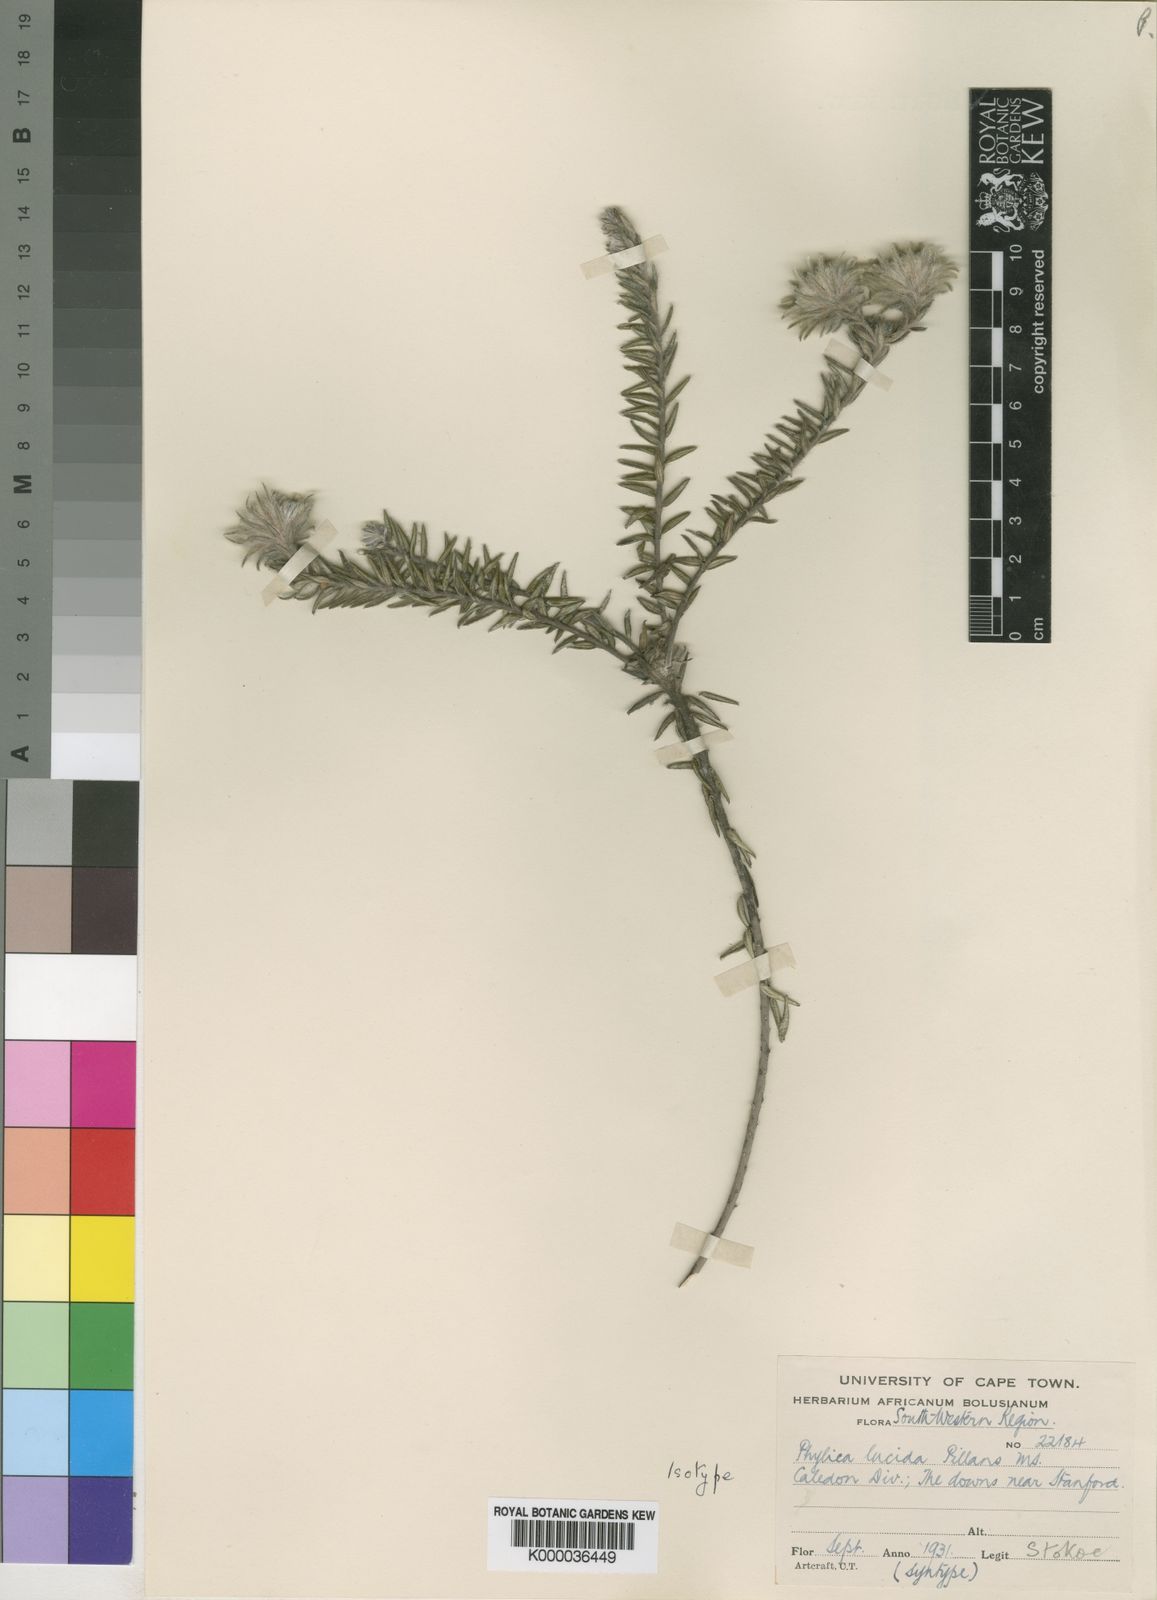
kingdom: Plantae
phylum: Tracheophyta
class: Magnoliopsida
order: Rosales
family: Rhamnaceae
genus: Phylica
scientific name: Phylica lucida
